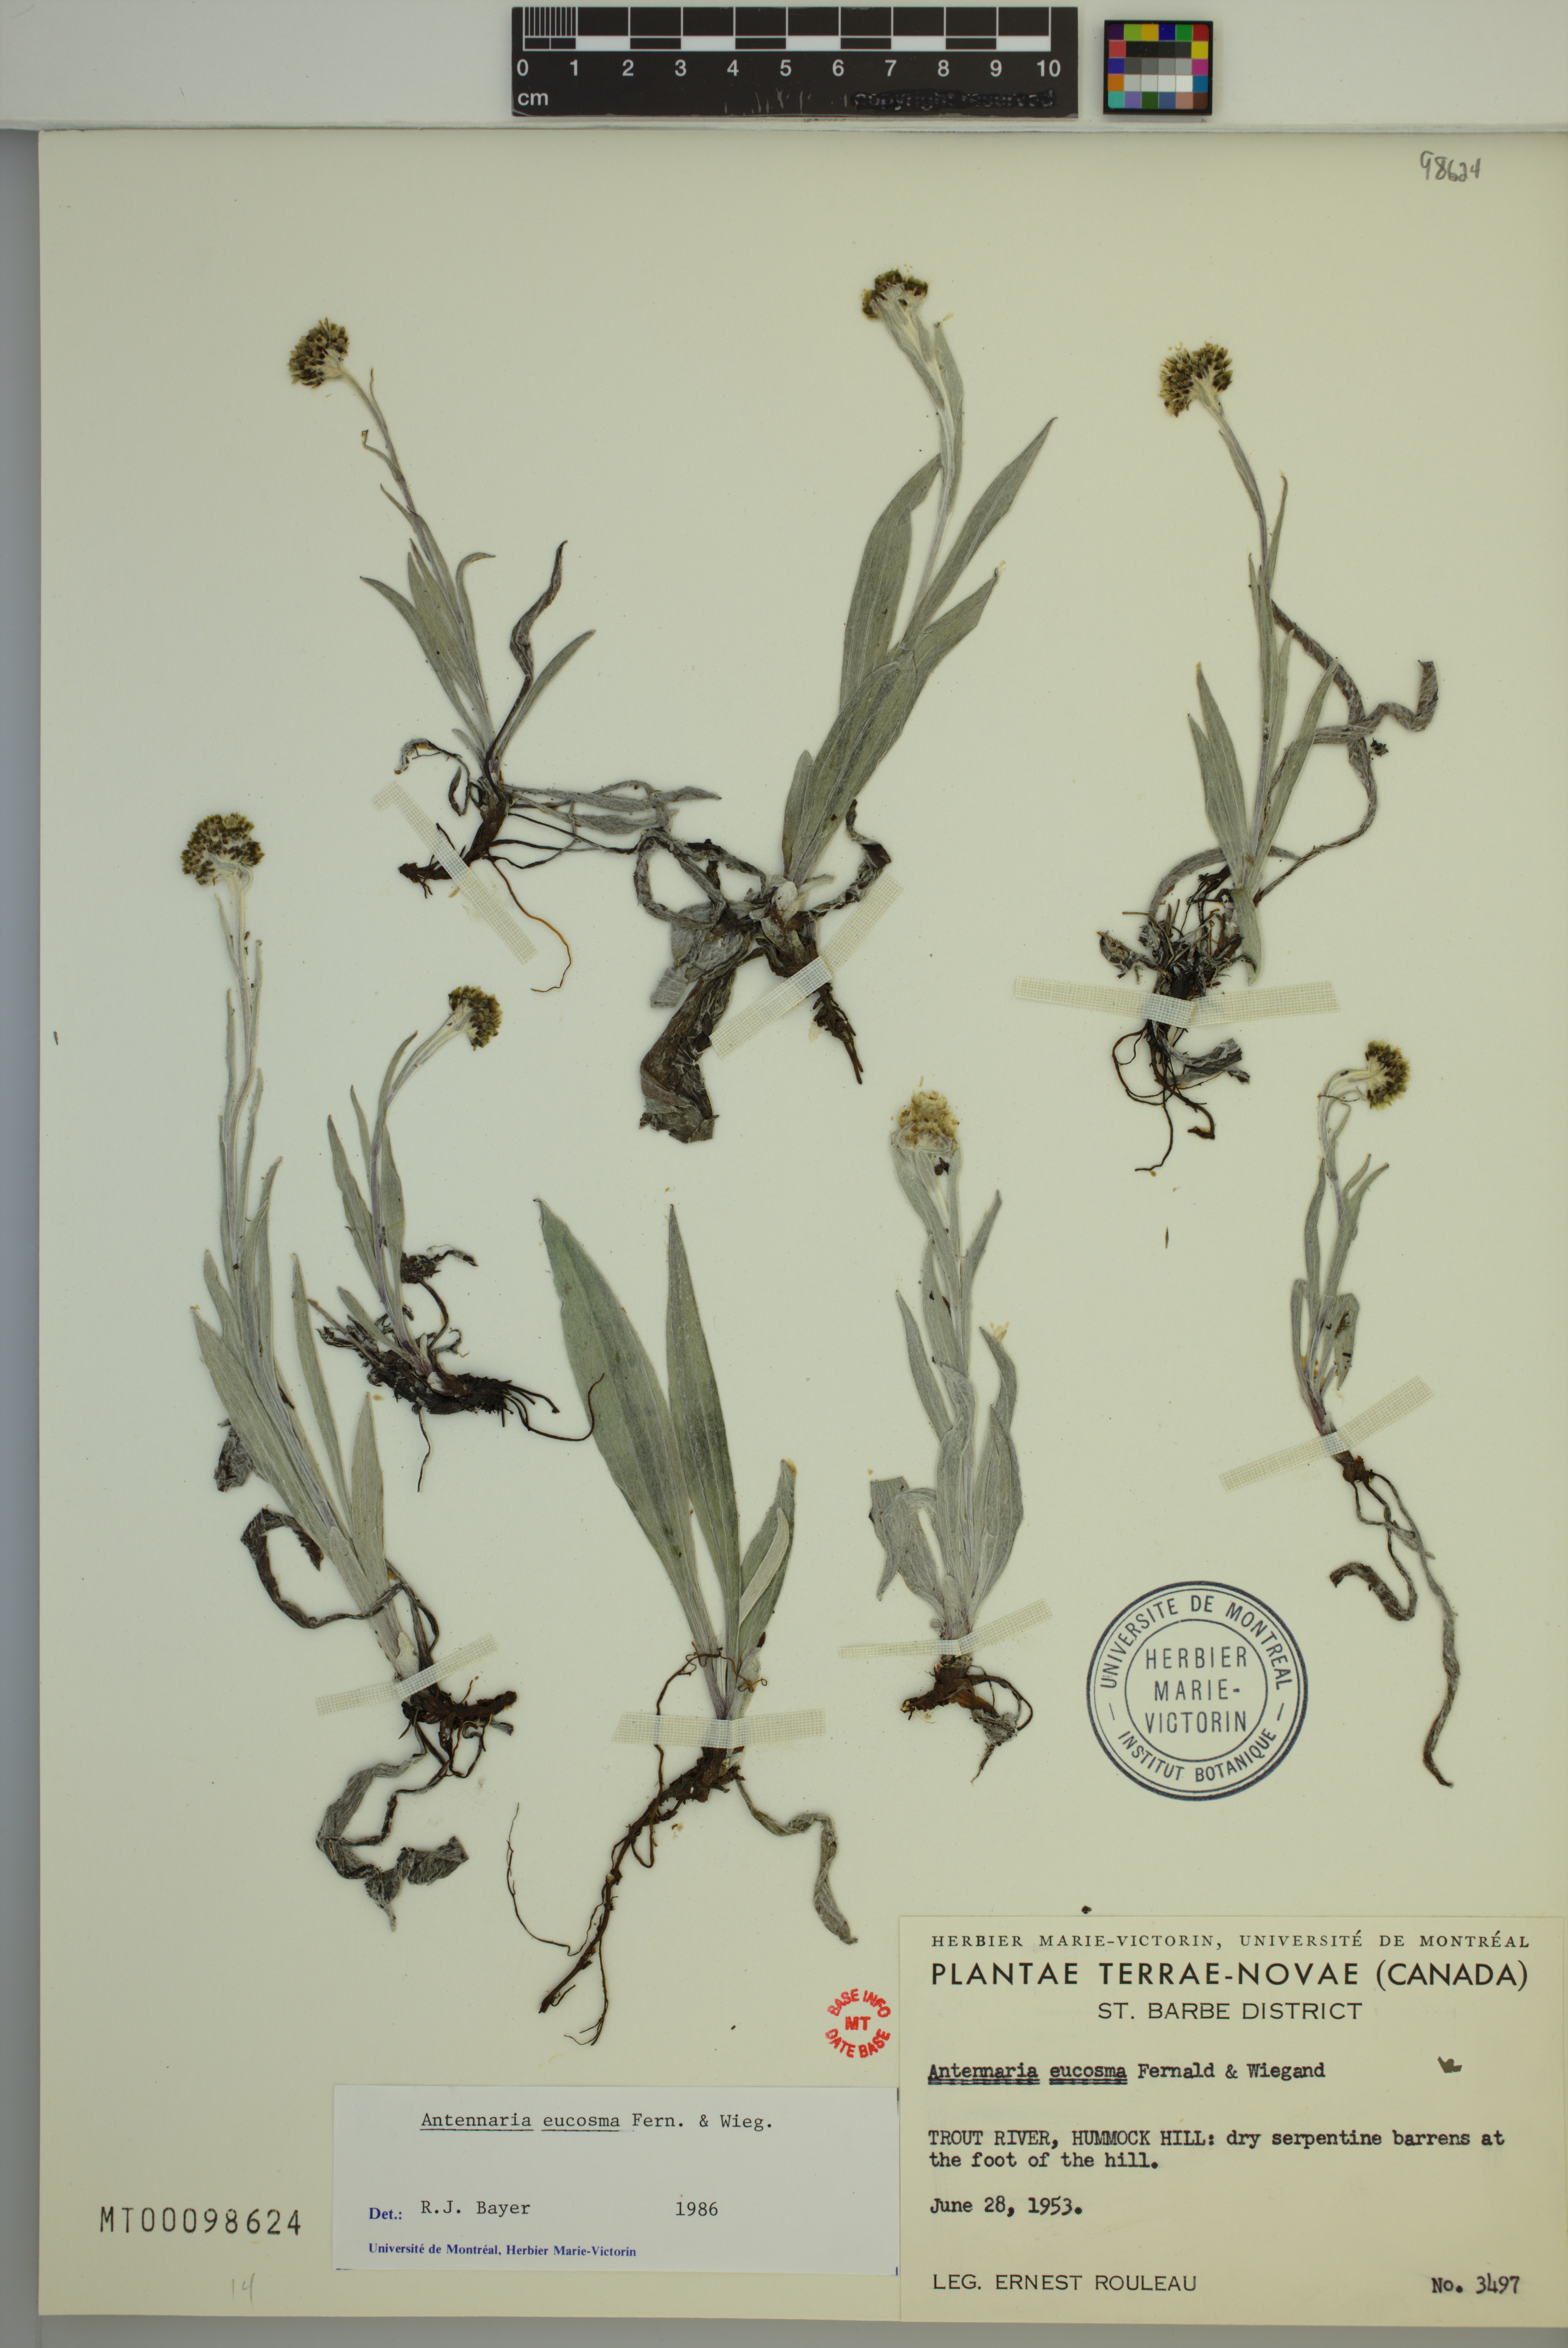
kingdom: Plantae
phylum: Tracheophyta
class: Magnoliopsida
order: Asterales
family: Asteraceae
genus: Antennaria
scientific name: Antennaria pulcherrima
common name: Handsome pussytoes
